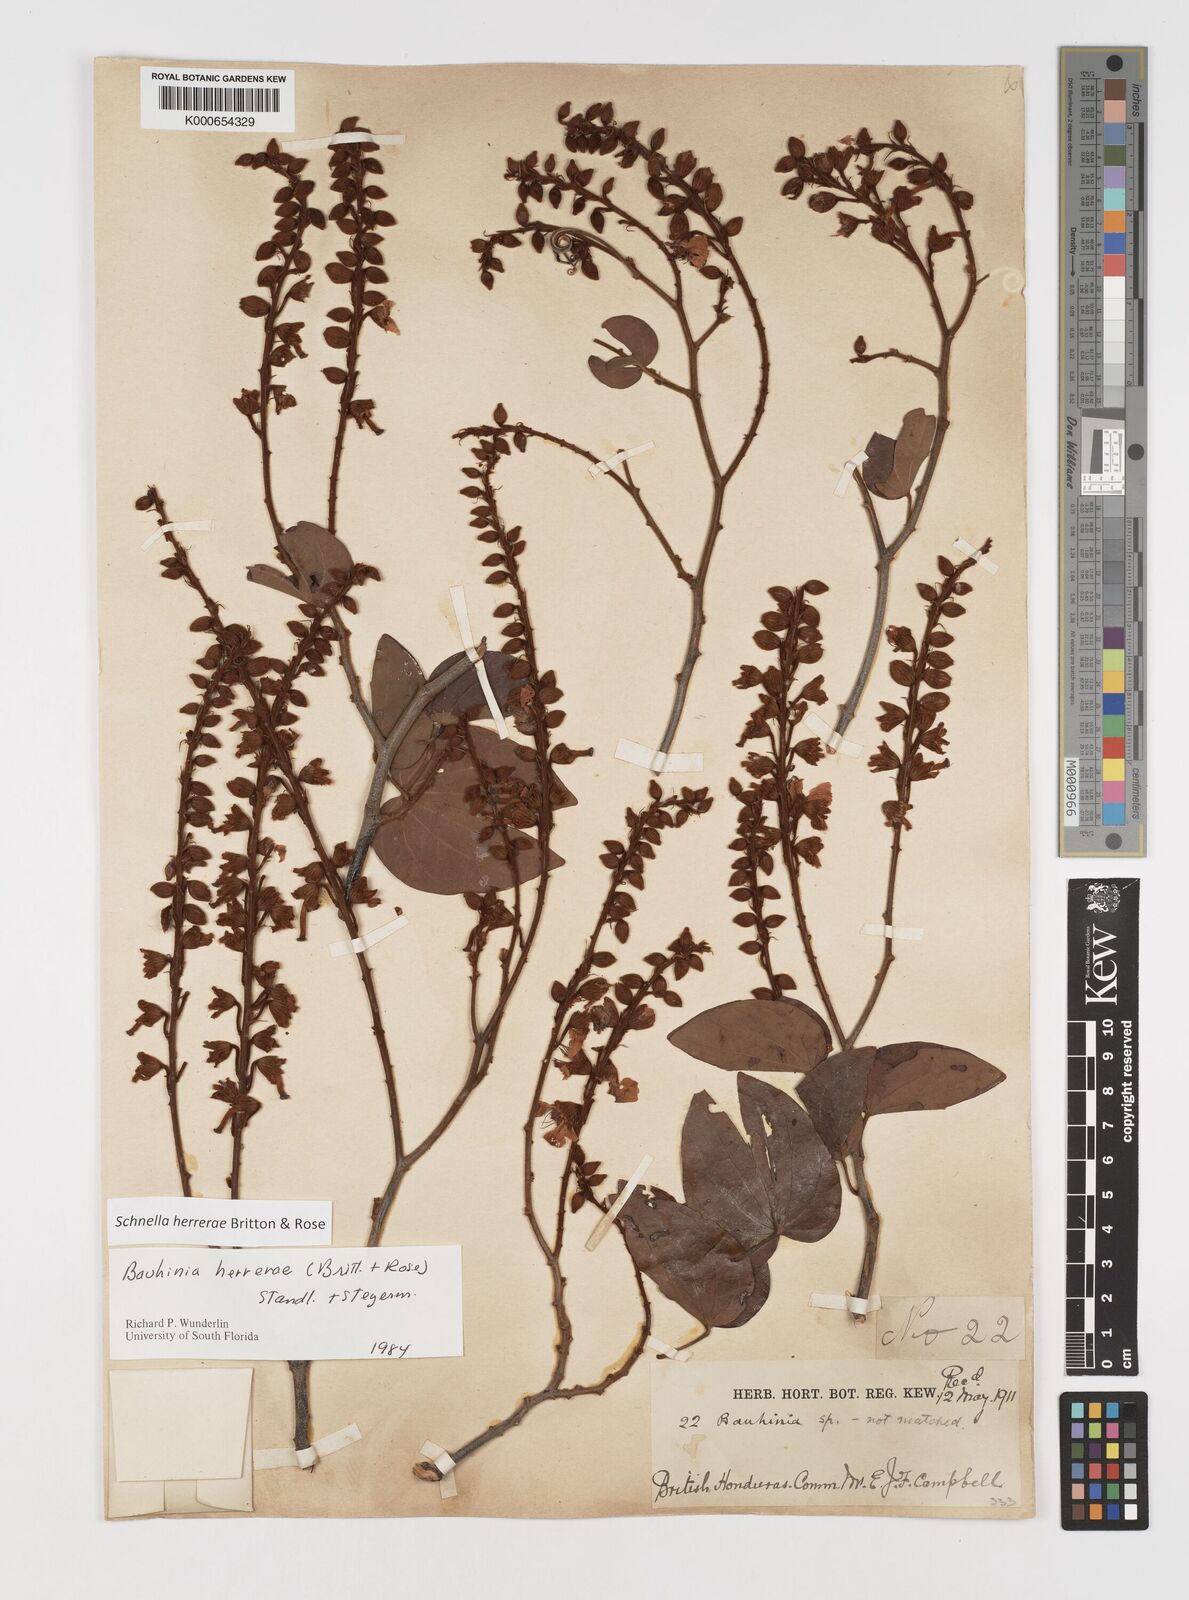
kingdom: Plantae
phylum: Tracheophyta
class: Magnoliopsida
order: Fabales
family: Fabaceae
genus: Schnella
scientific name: Schnella herrerae
